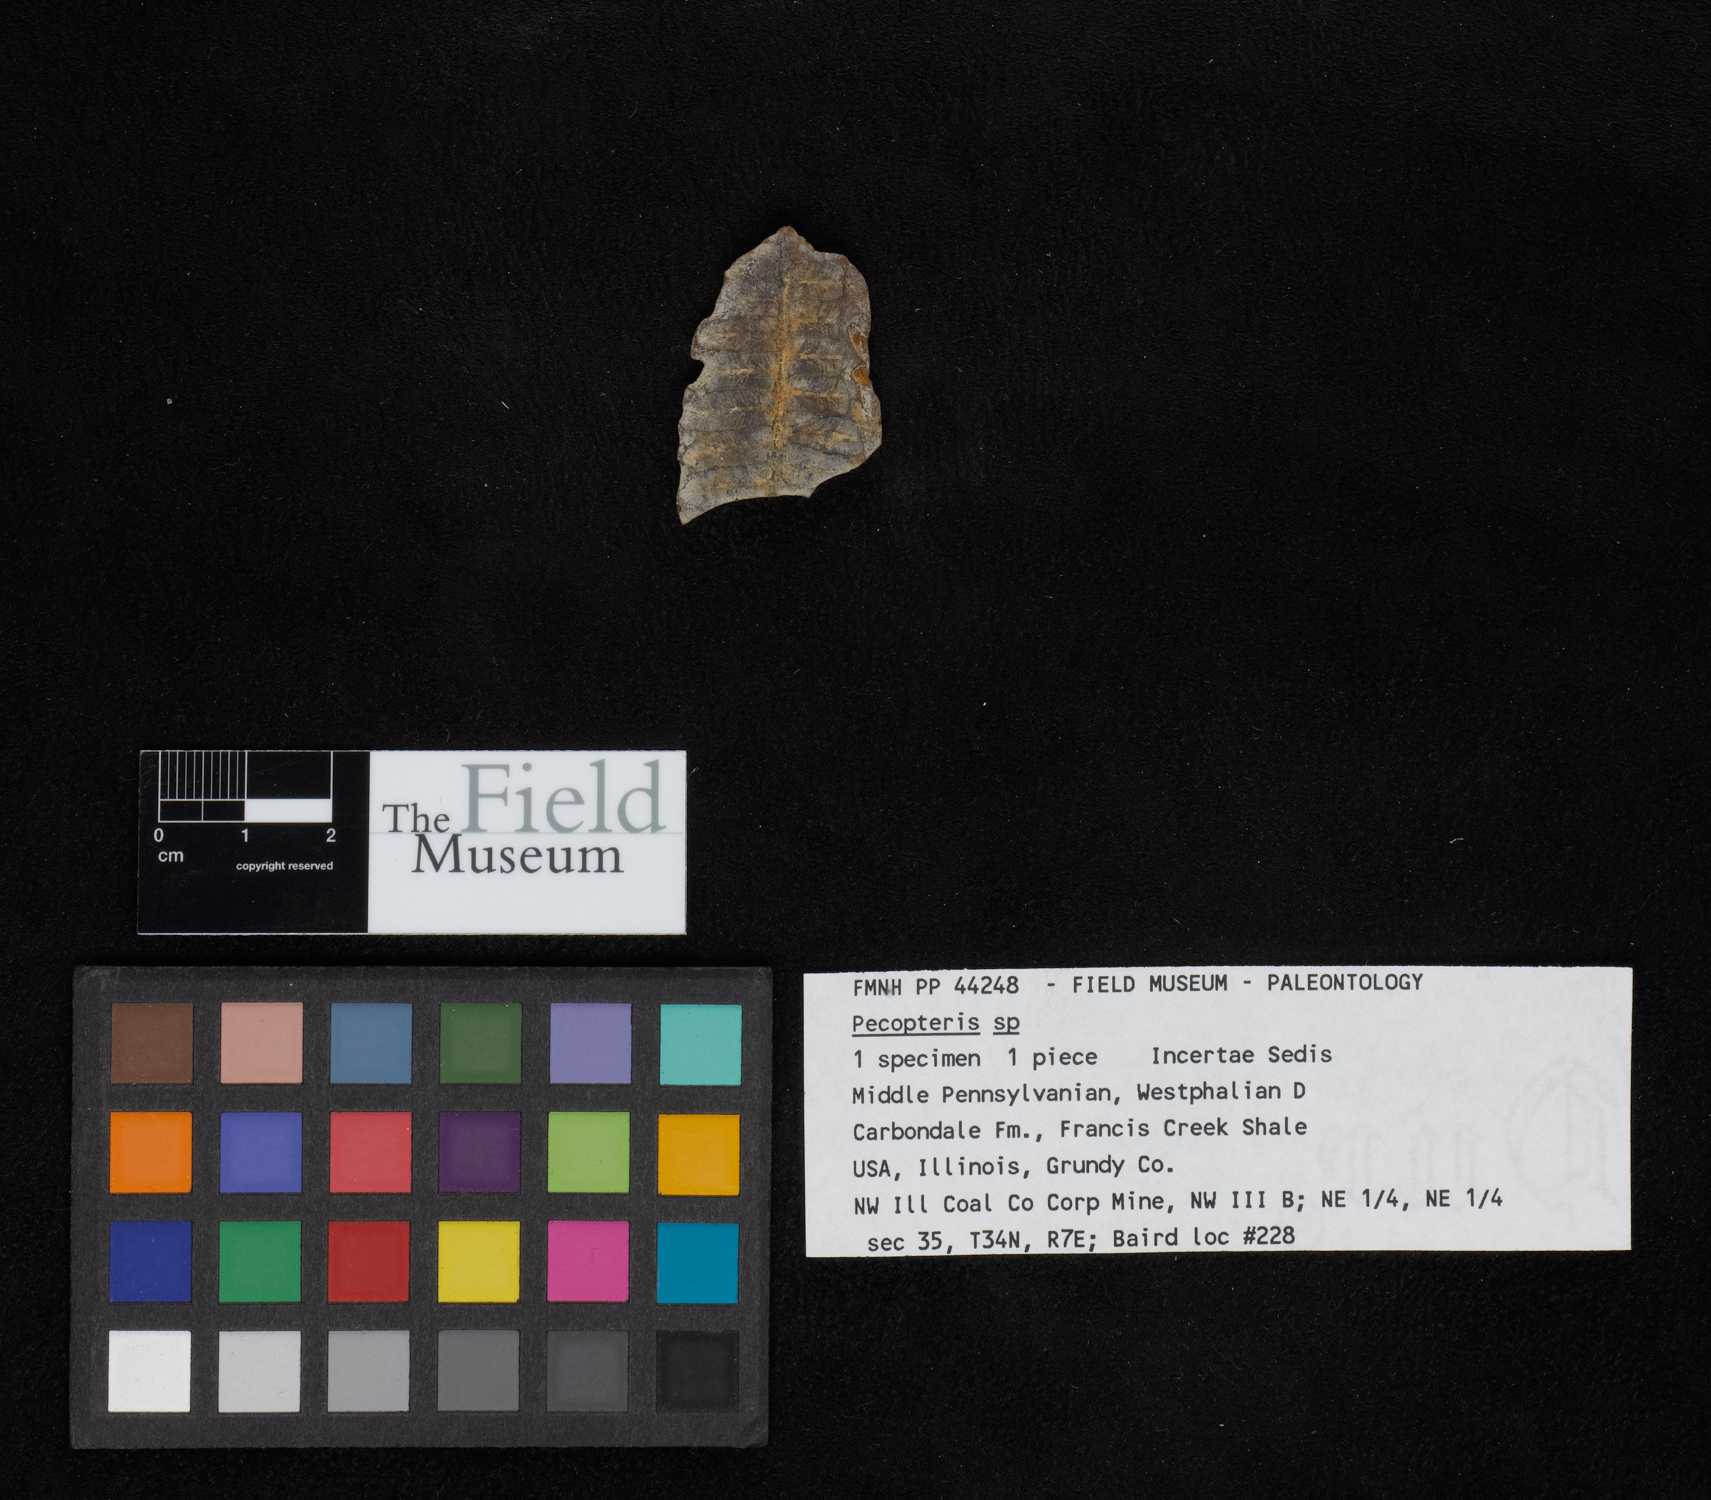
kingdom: Plantae
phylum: Tracheophyta
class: Polypodiopsida
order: Marattiales
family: Asterothecaceae
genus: Pecopteris
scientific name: Pecopteris
